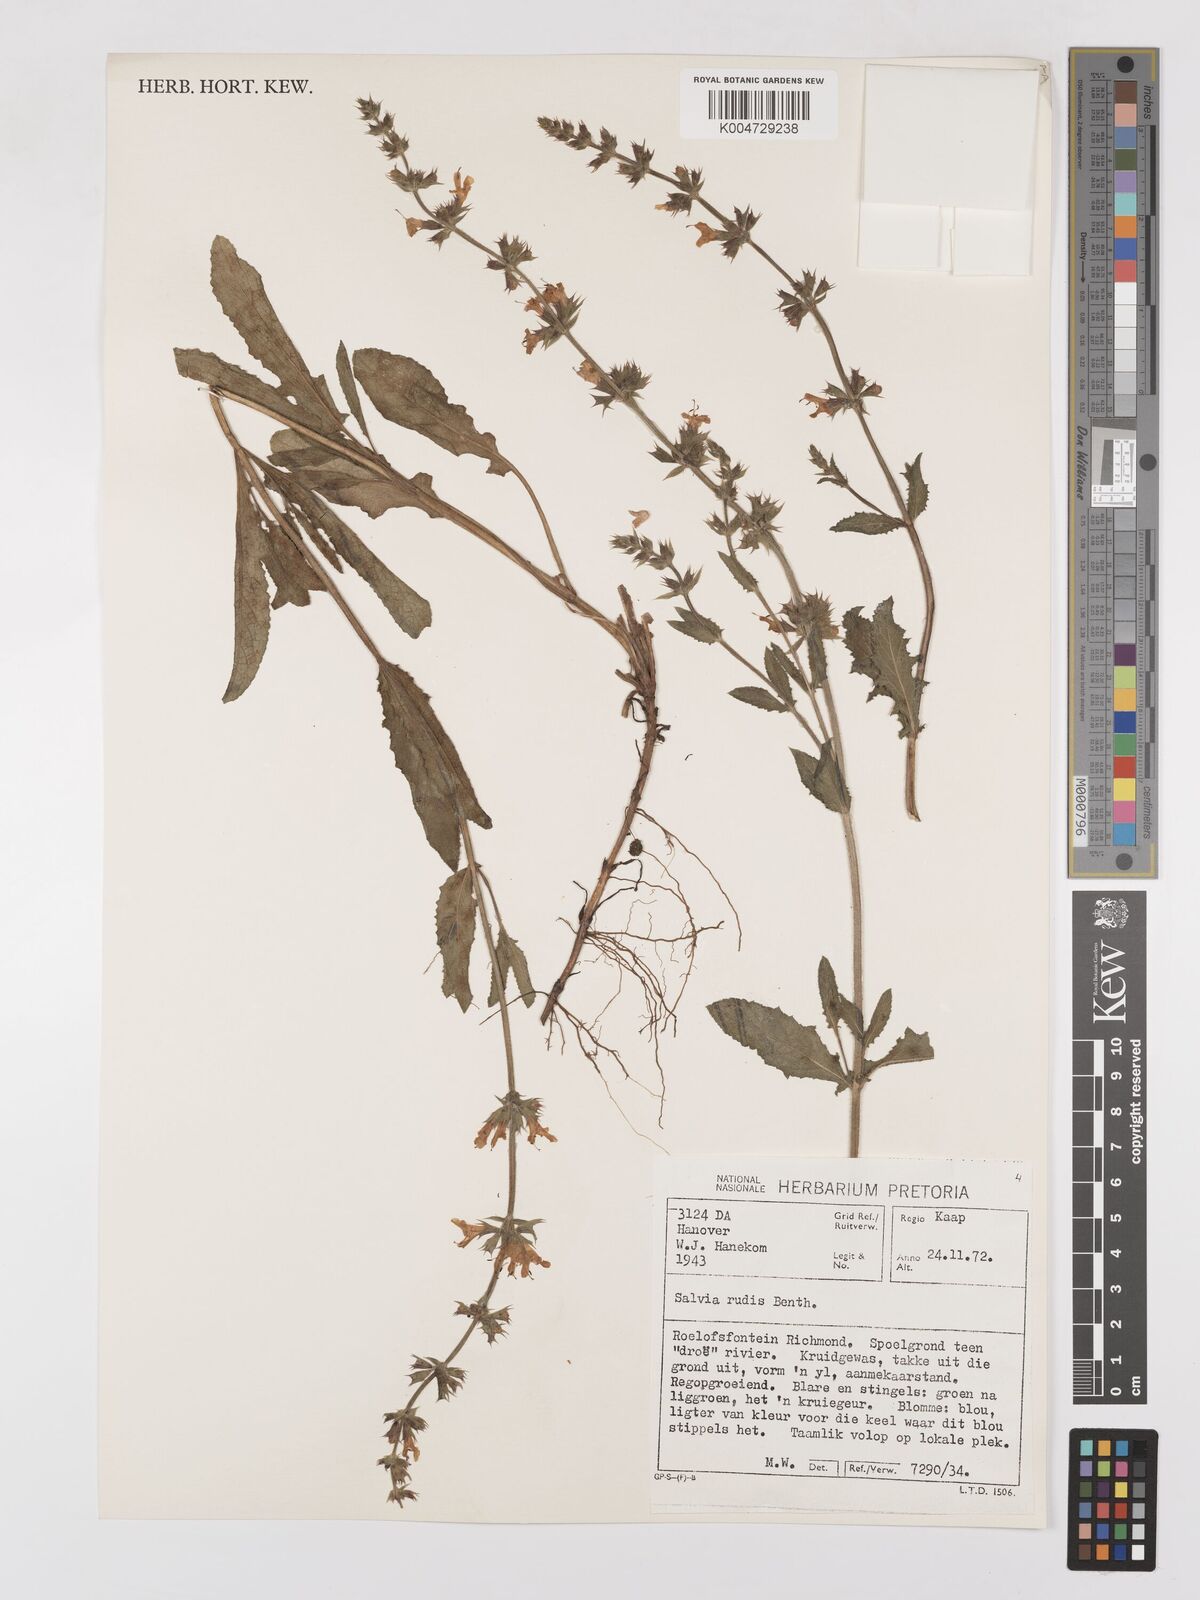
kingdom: Plantae
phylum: Tracheophyta
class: Magnoliopsida
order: Lamiales
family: Lamiaceae
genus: Salvia
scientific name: Salvia repens
